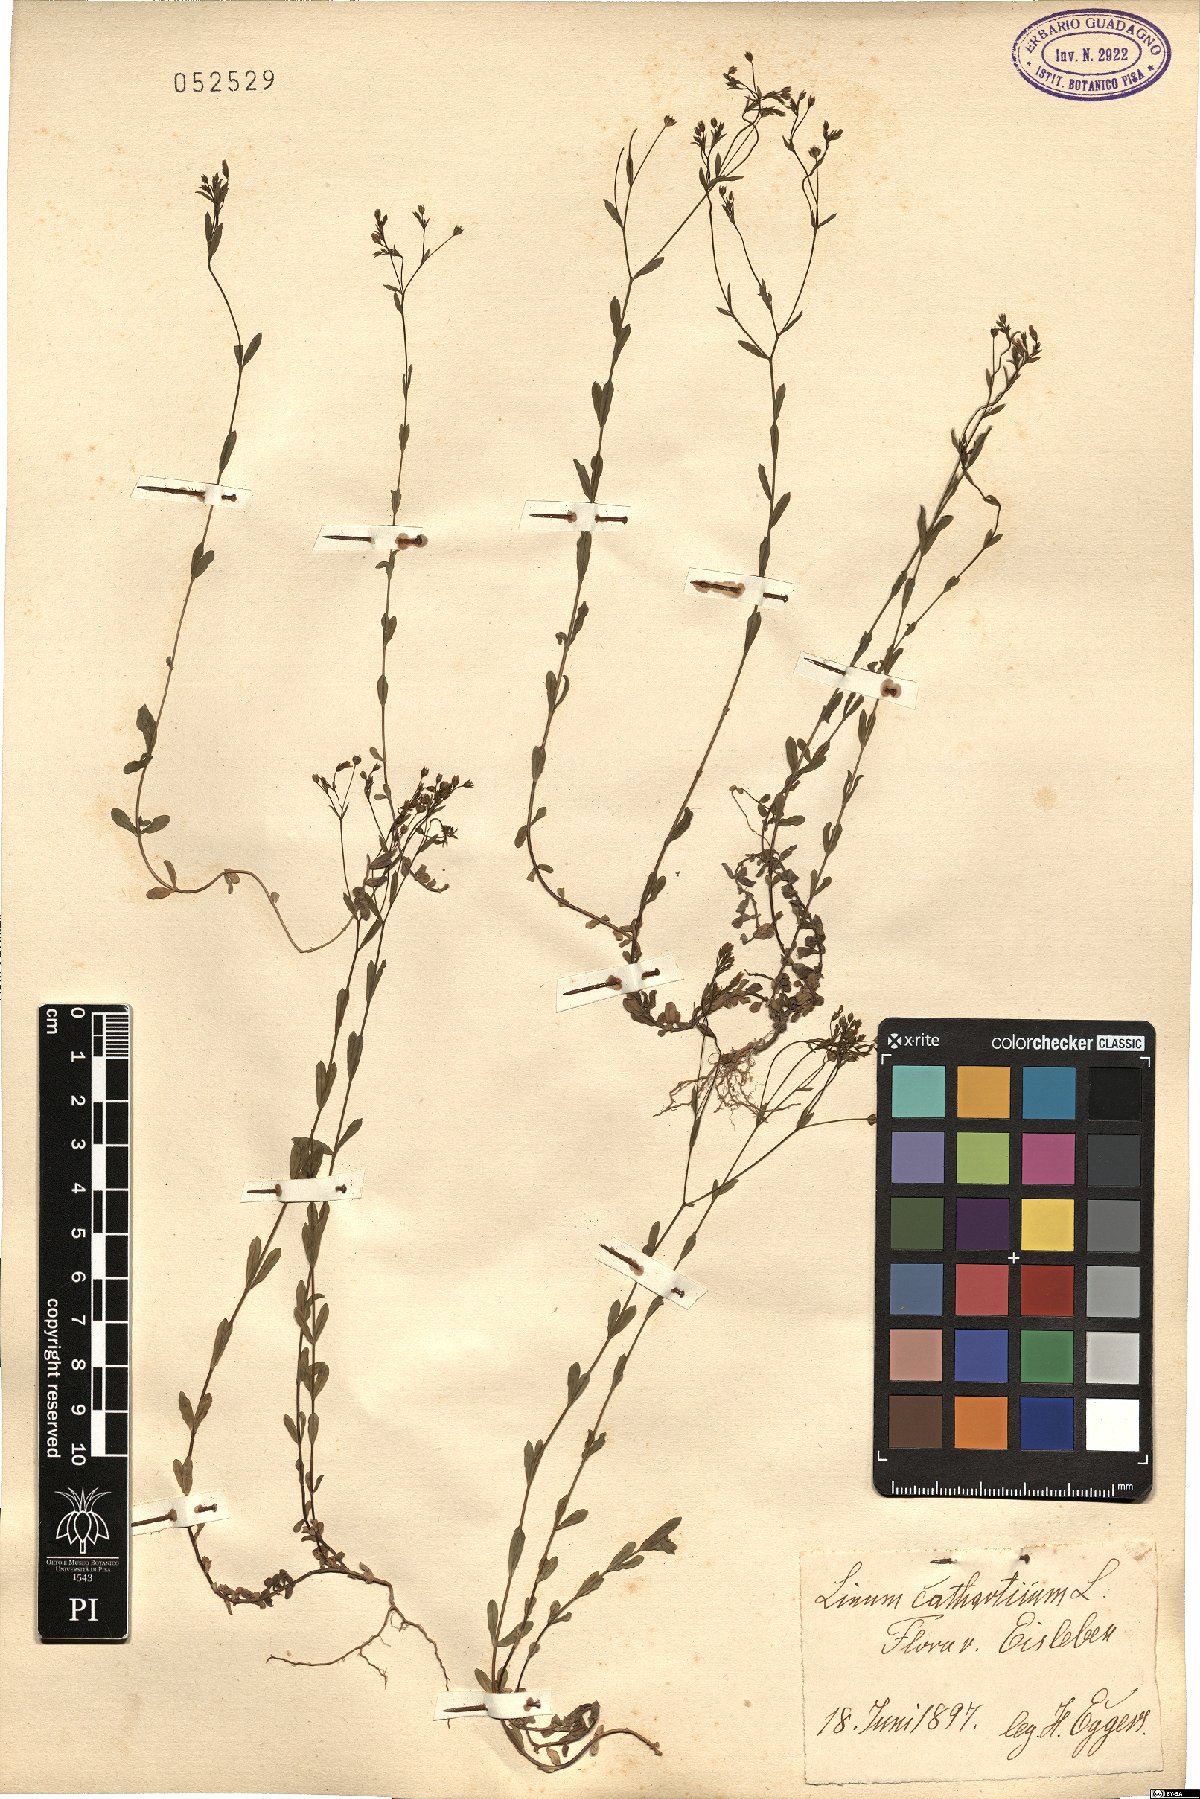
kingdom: Plantae
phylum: Tracheophyta
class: Magnoliopsida
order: Malpighiales
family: Linaceae
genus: Linum
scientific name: Linum catharticum
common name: Fairy flax
